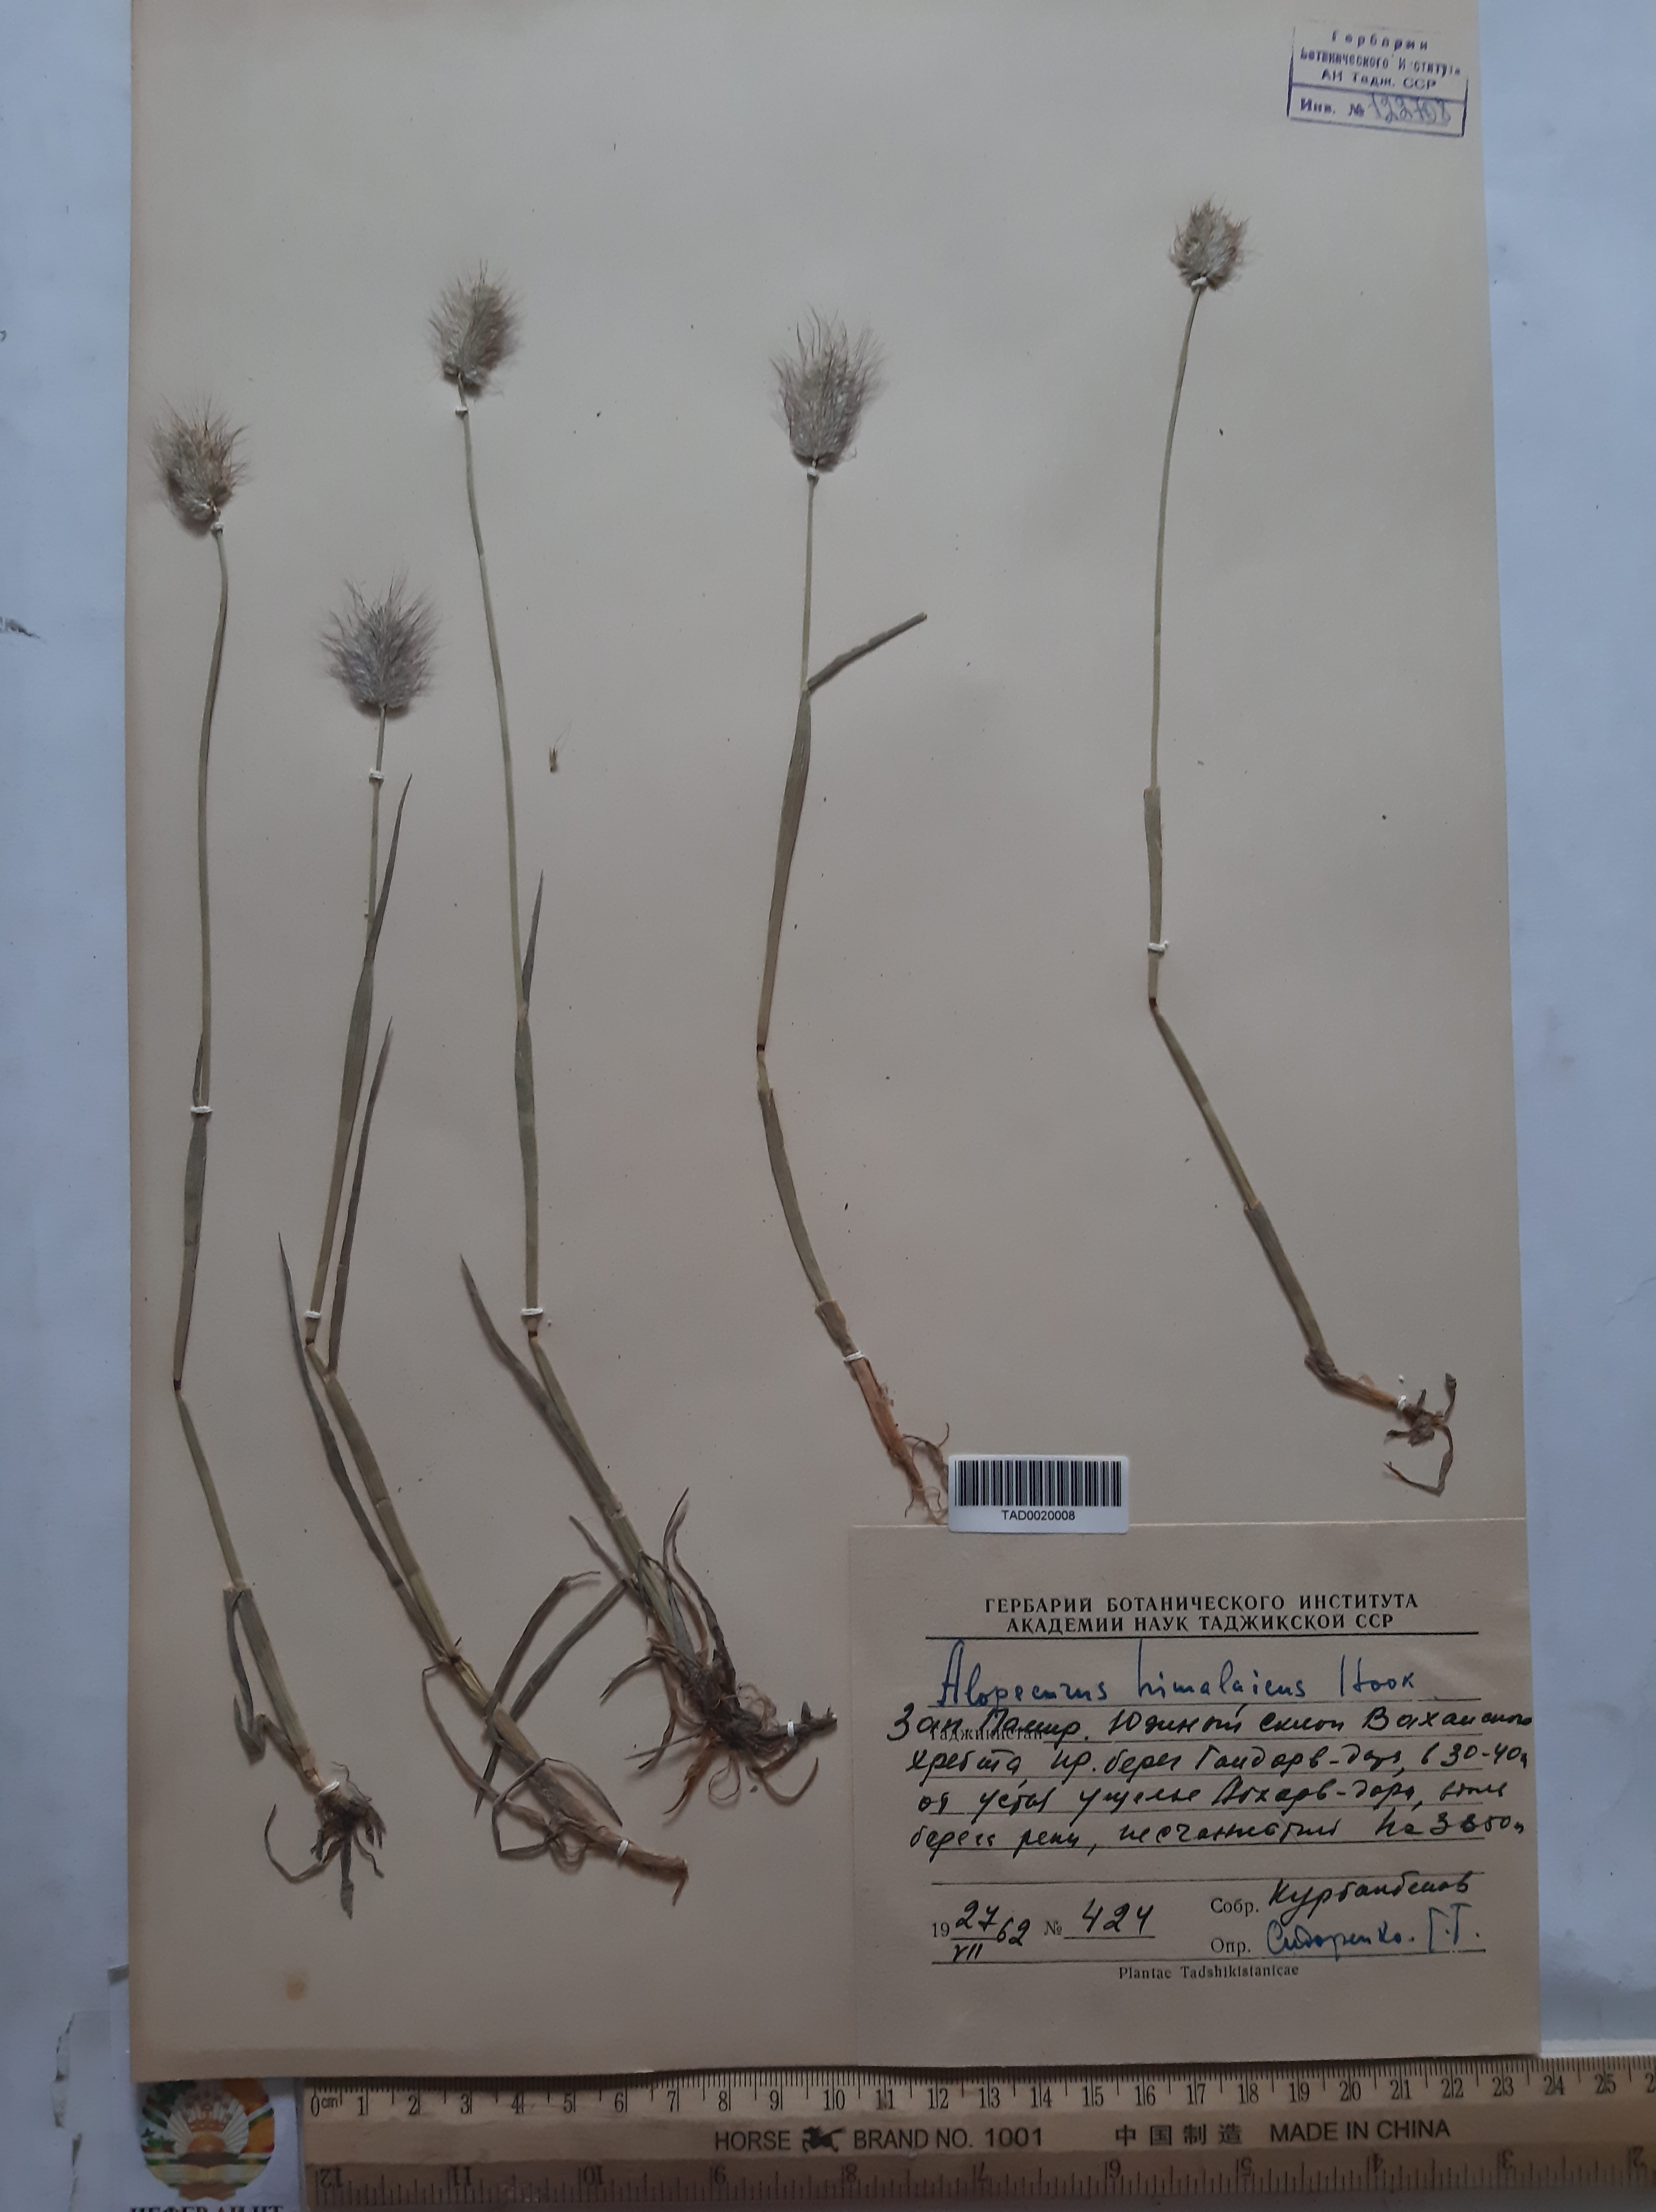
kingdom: Plantae
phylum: Tracheophyta
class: Liliopsida
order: Poales
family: Poaceae
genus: Alopecurus
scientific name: Alopecurus himalaicus
